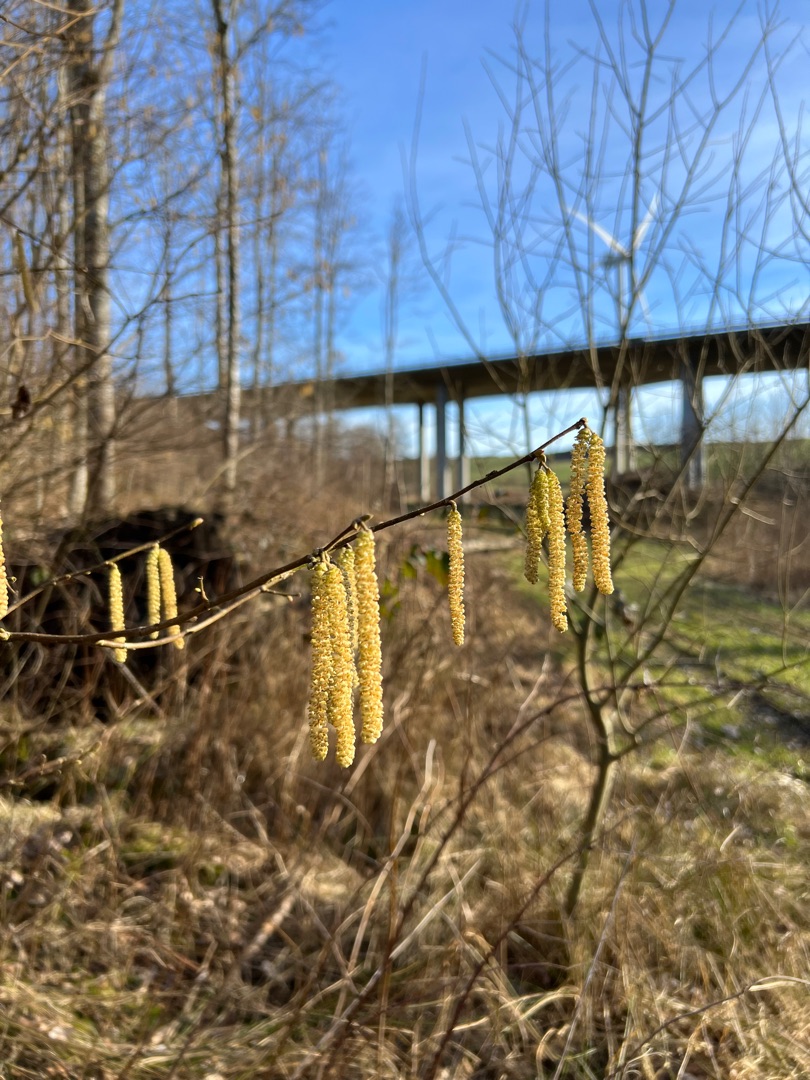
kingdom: Plantae
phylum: Tracheophyta
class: Magnoliopsida
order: Fagales
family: Betulaceae
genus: Corylus
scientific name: Corylus avellana
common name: Hassel
